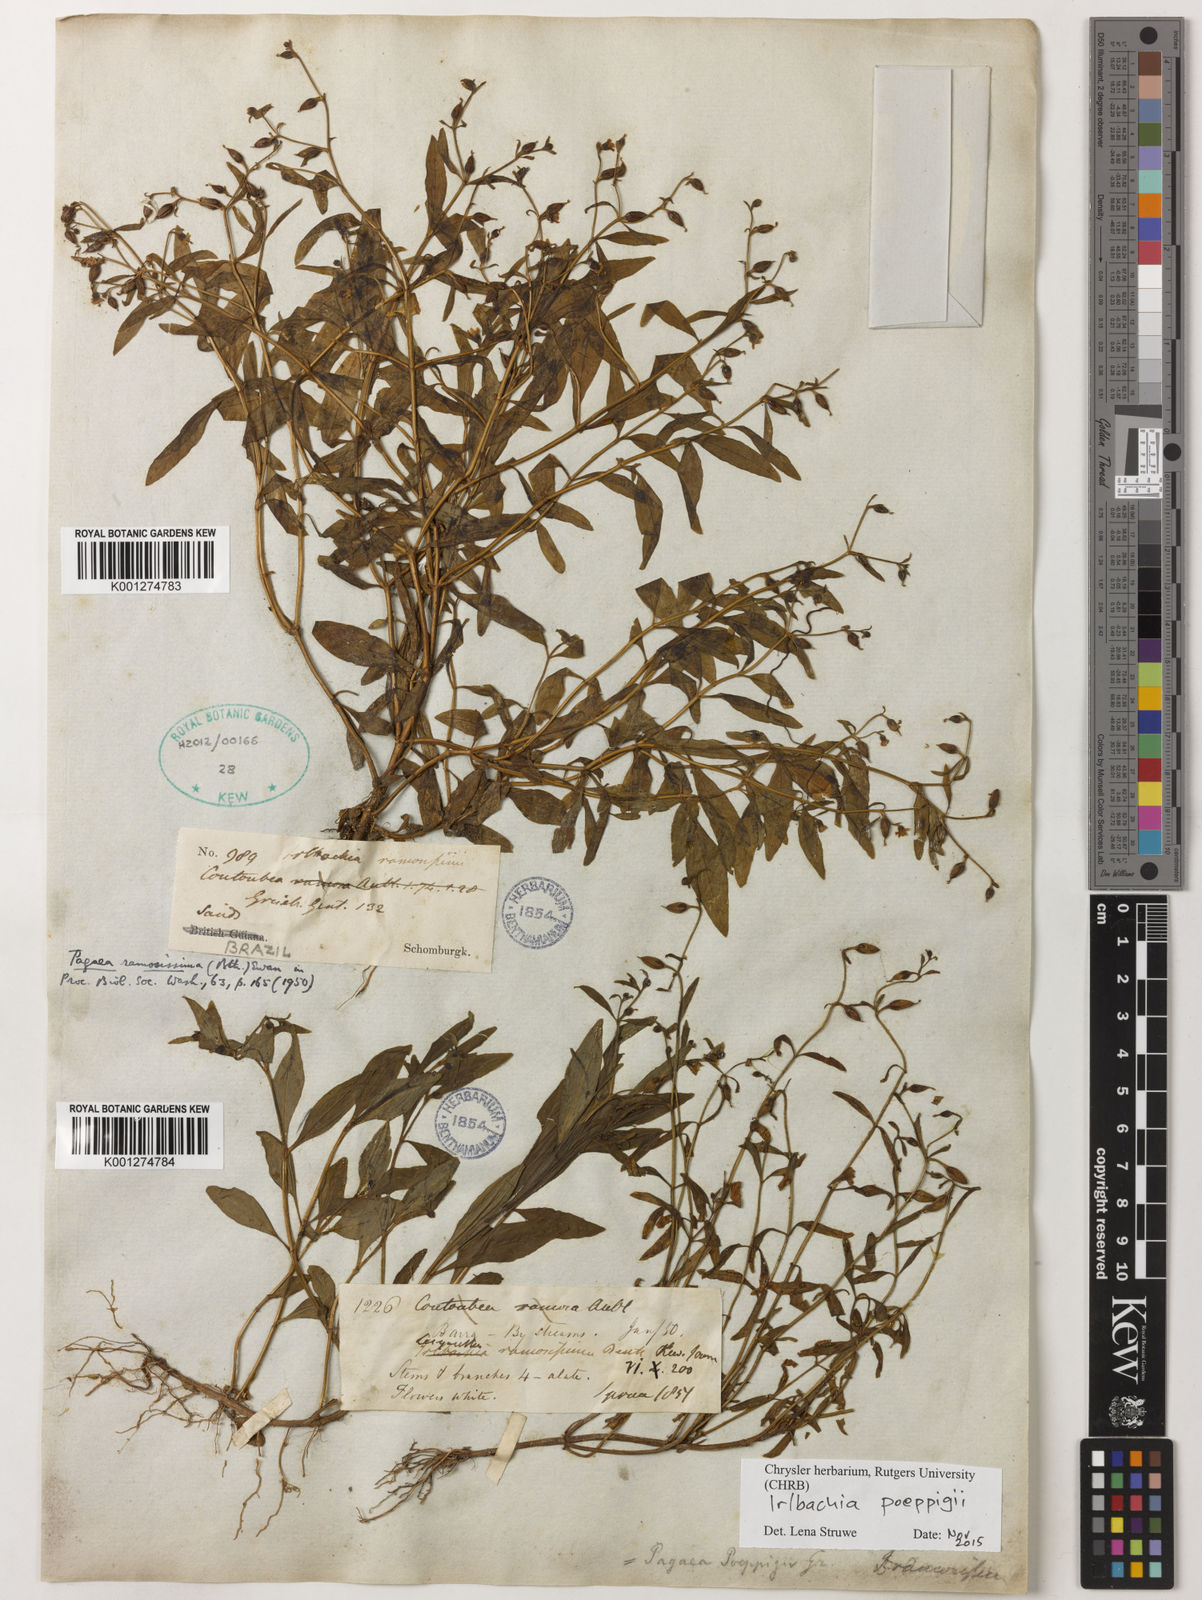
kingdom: Plantae
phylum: Tracheophyta
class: Magnoliopsida
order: Gentianales
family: Gentianaceae
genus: Irlbachia
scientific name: Irlbachia poeppigii
